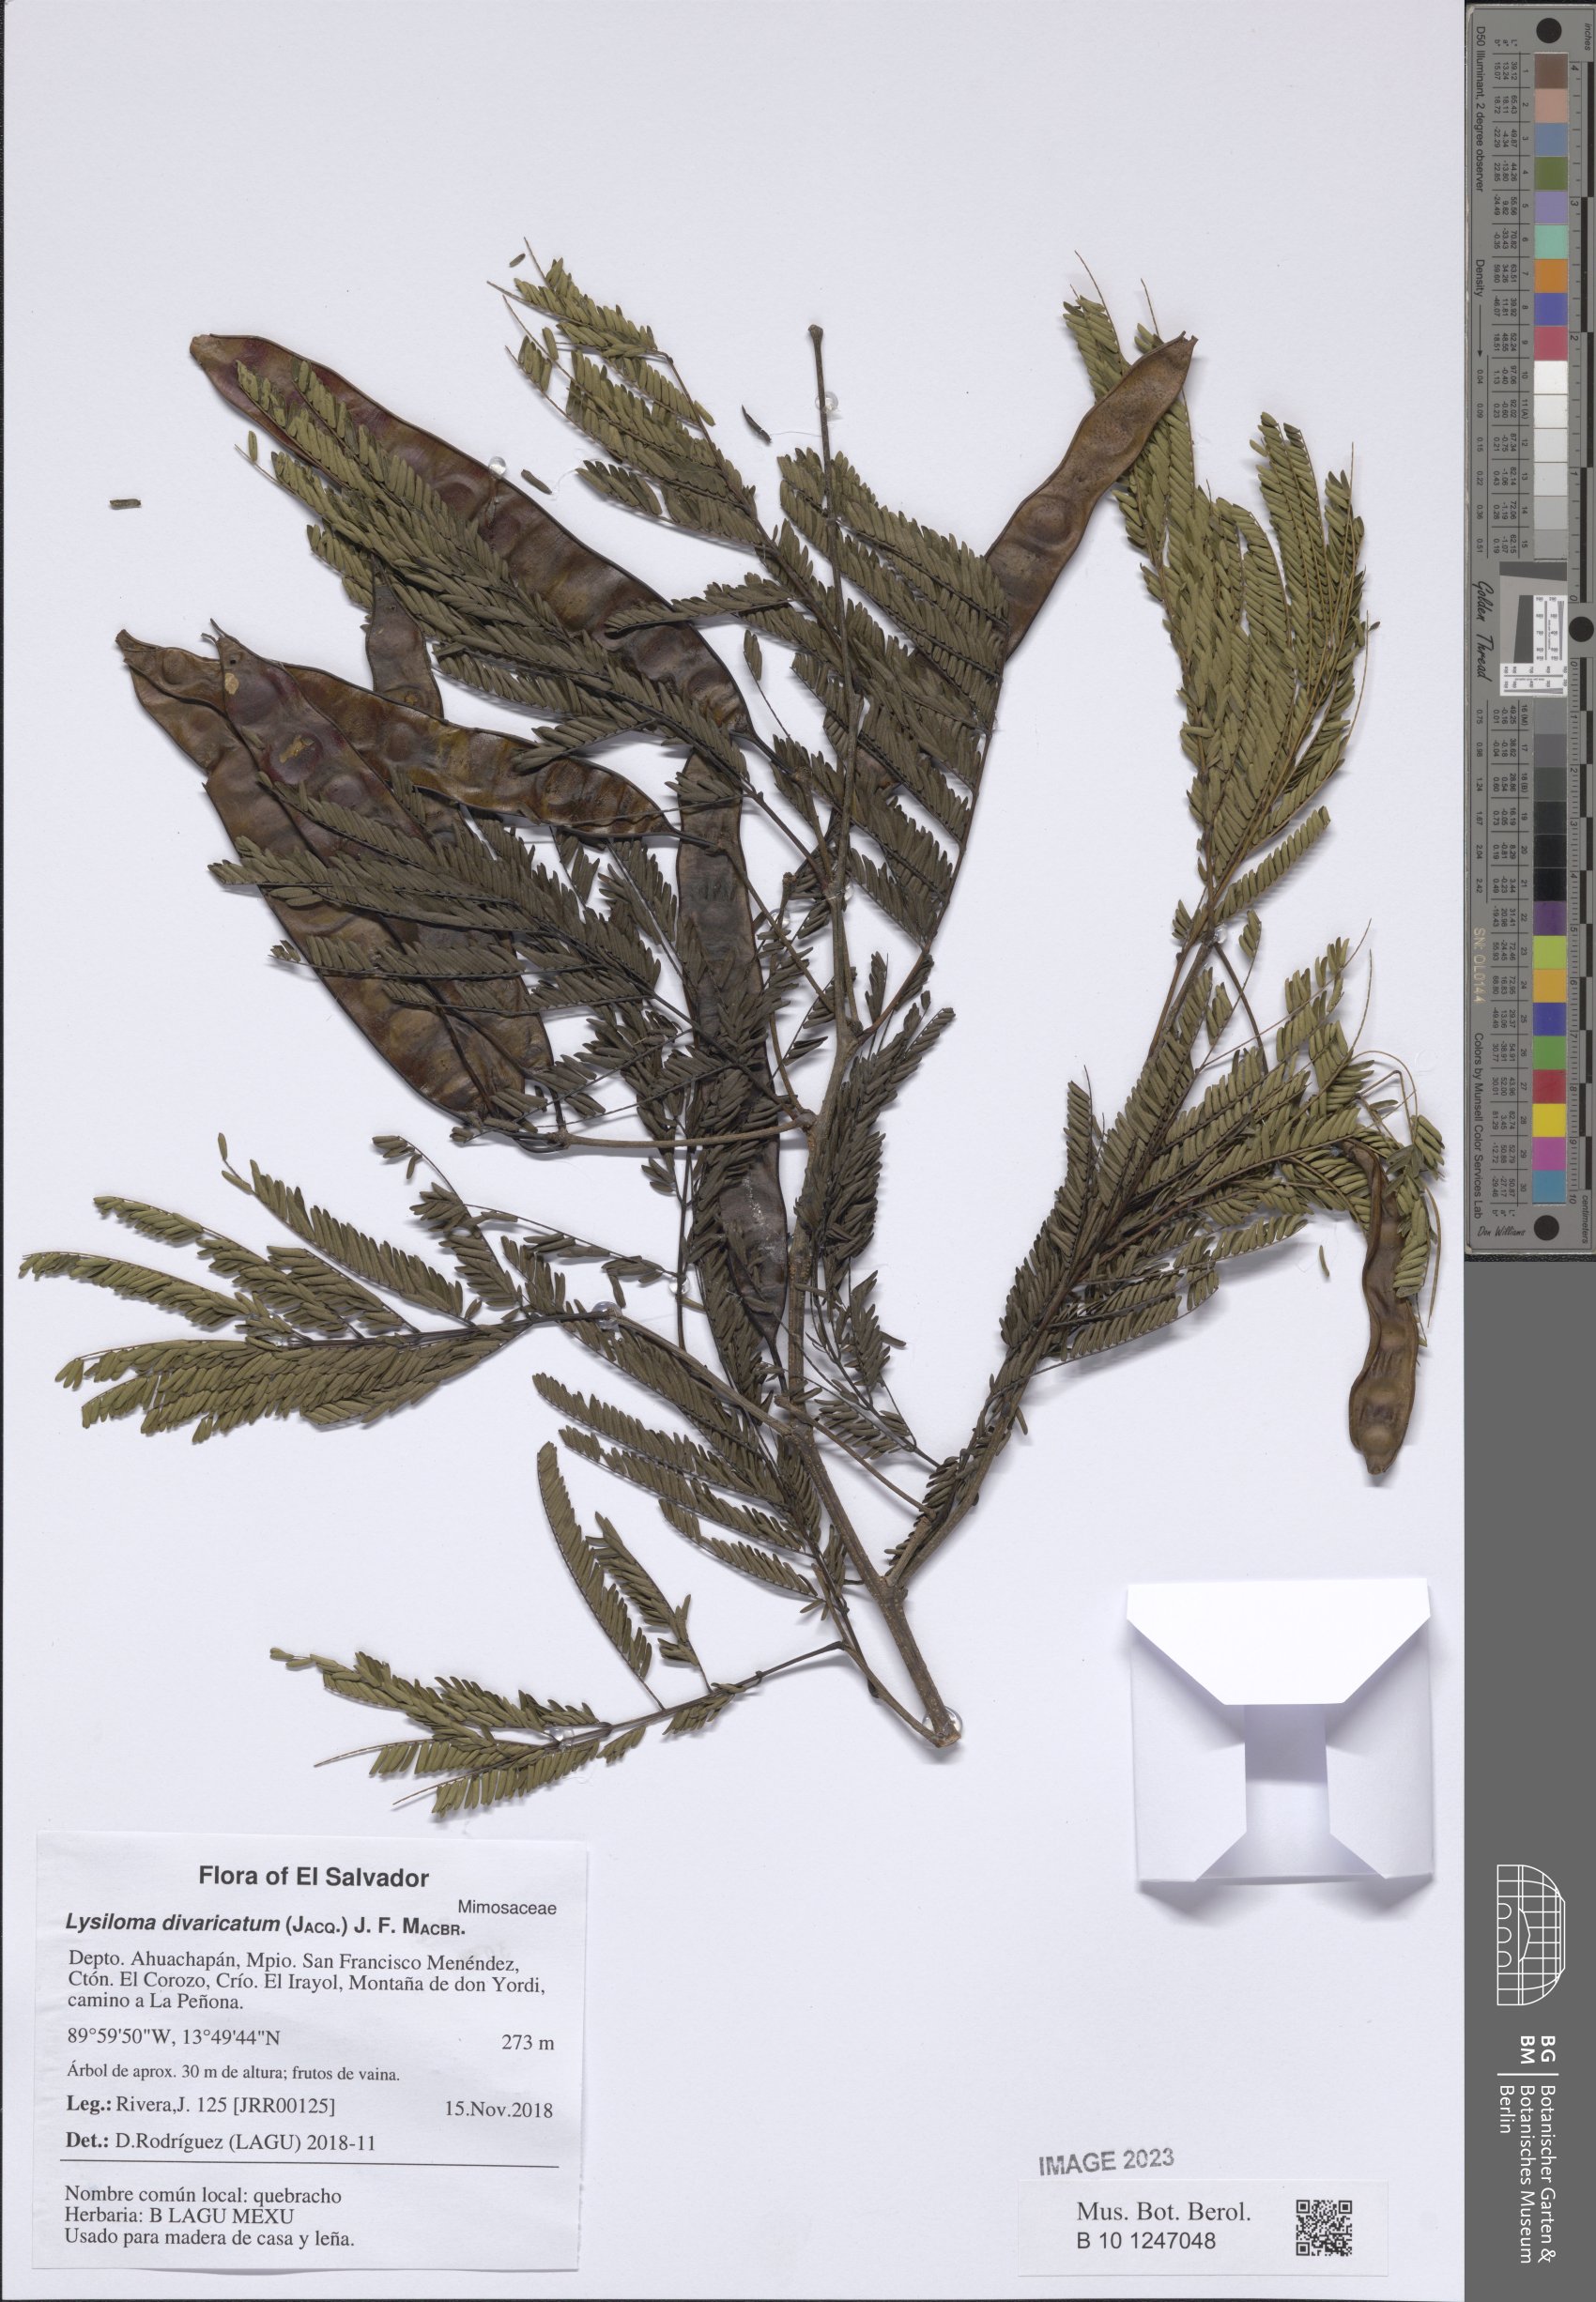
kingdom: Plantae
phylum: Tracheophyta
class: Magnoliopsida
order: Fabales
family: Fabaceae
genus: Lysiloma
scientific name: Lysiloma divaricatum
